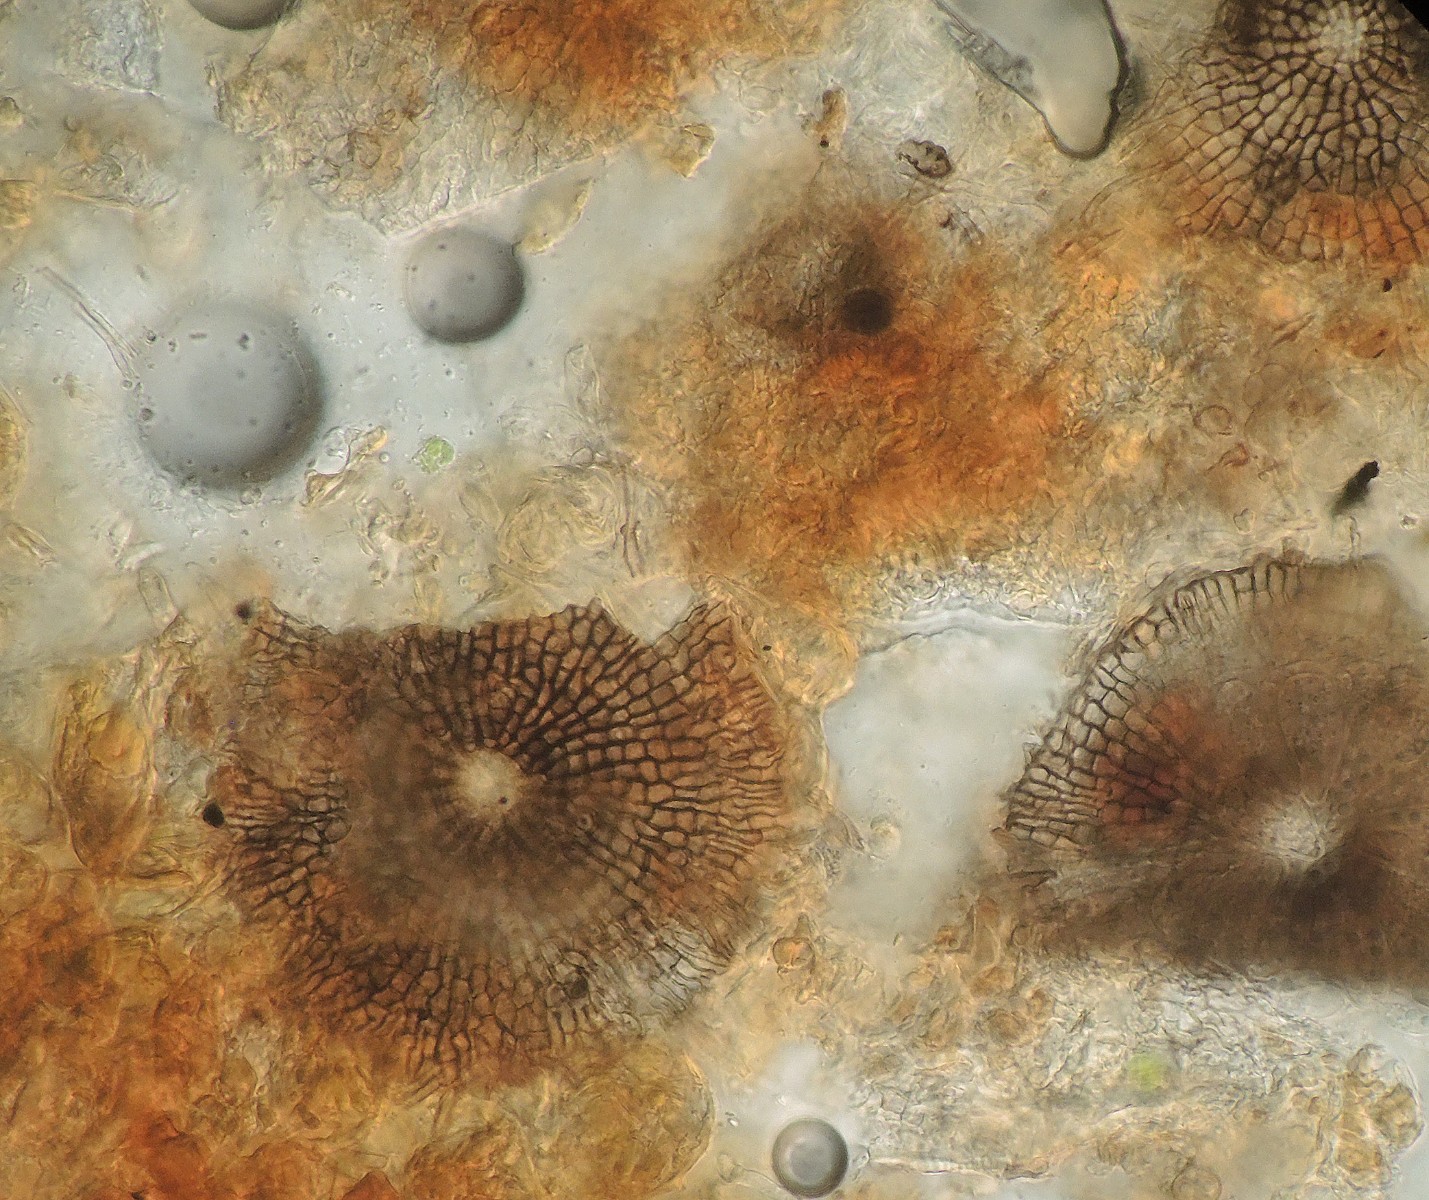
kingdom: Fungi
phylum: Ascomycota
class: Dothideomycetes
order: Microthyriales
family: Microthyriaceae
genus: Microthyrium
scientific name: Microthyrium ciliatum
